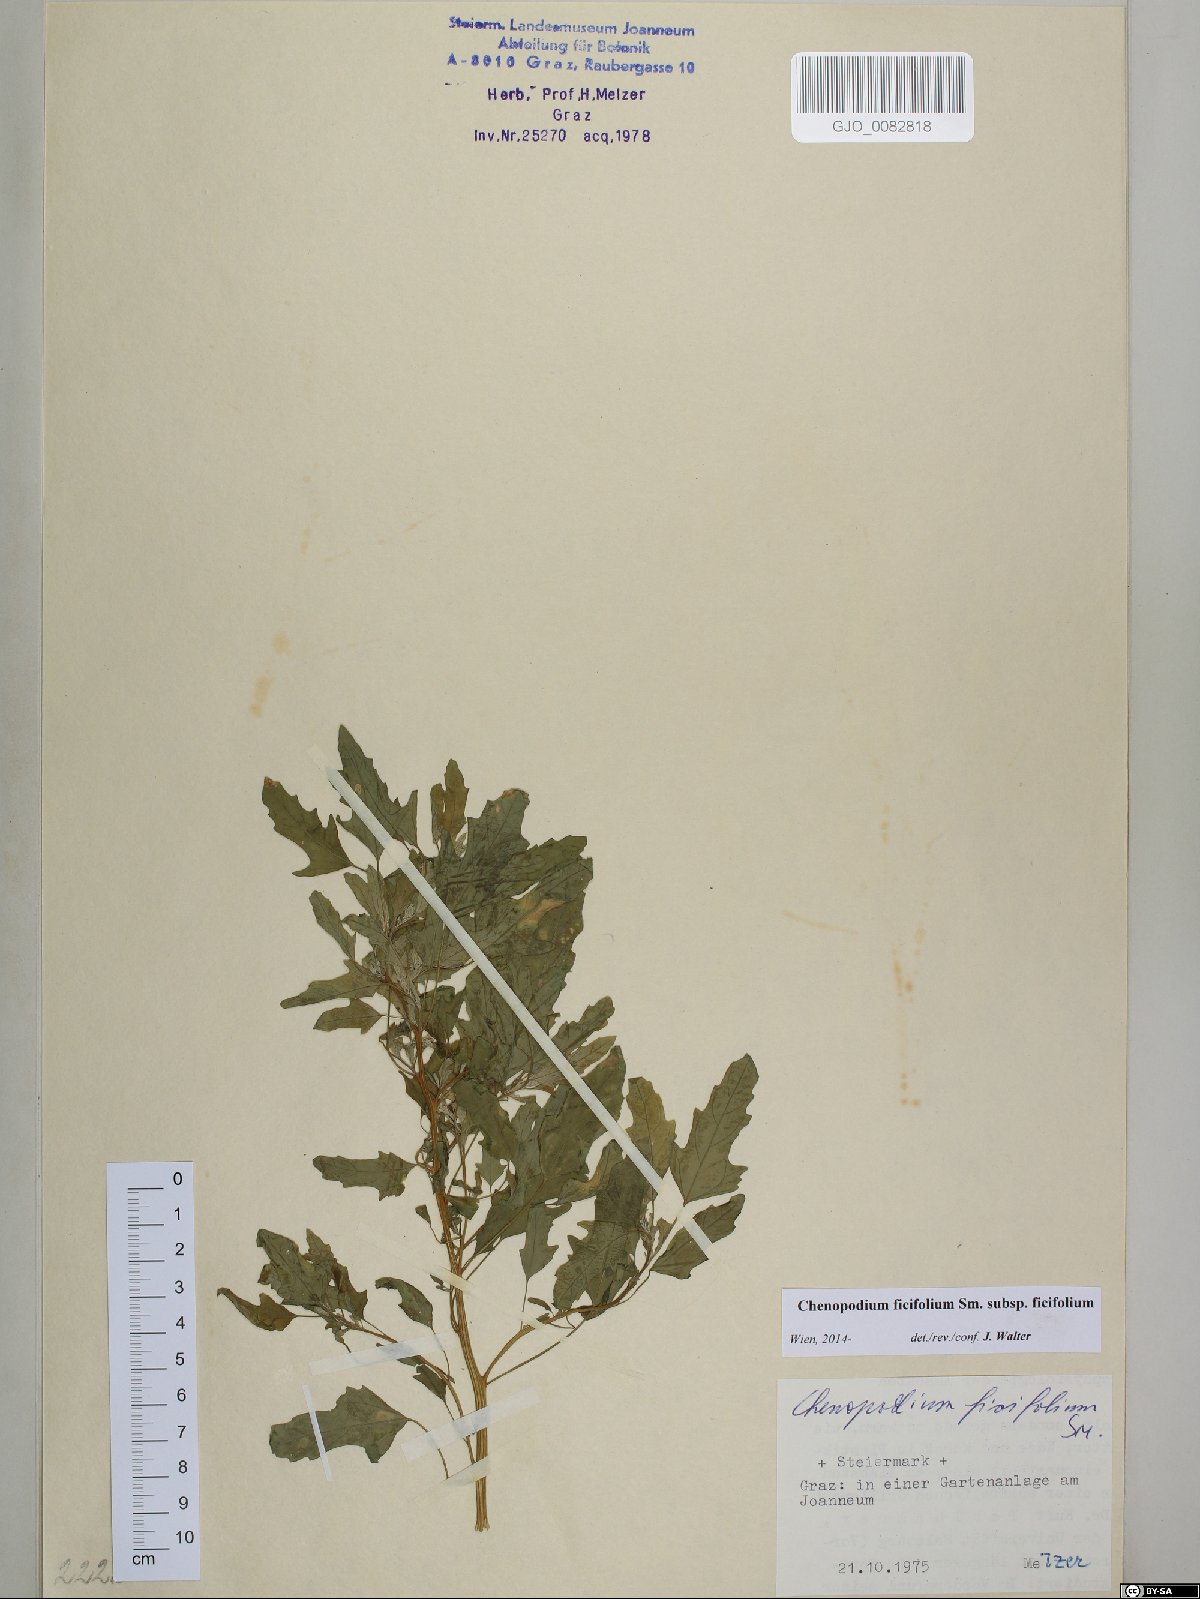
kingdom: Plantae
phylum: Tracheophyta
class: Magnoliopsida
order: Caryophyllales
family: Amaranthaceae
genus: Chenopodium
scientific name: Chenopodium ficifolium
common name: Fig-leaved goosefoot
